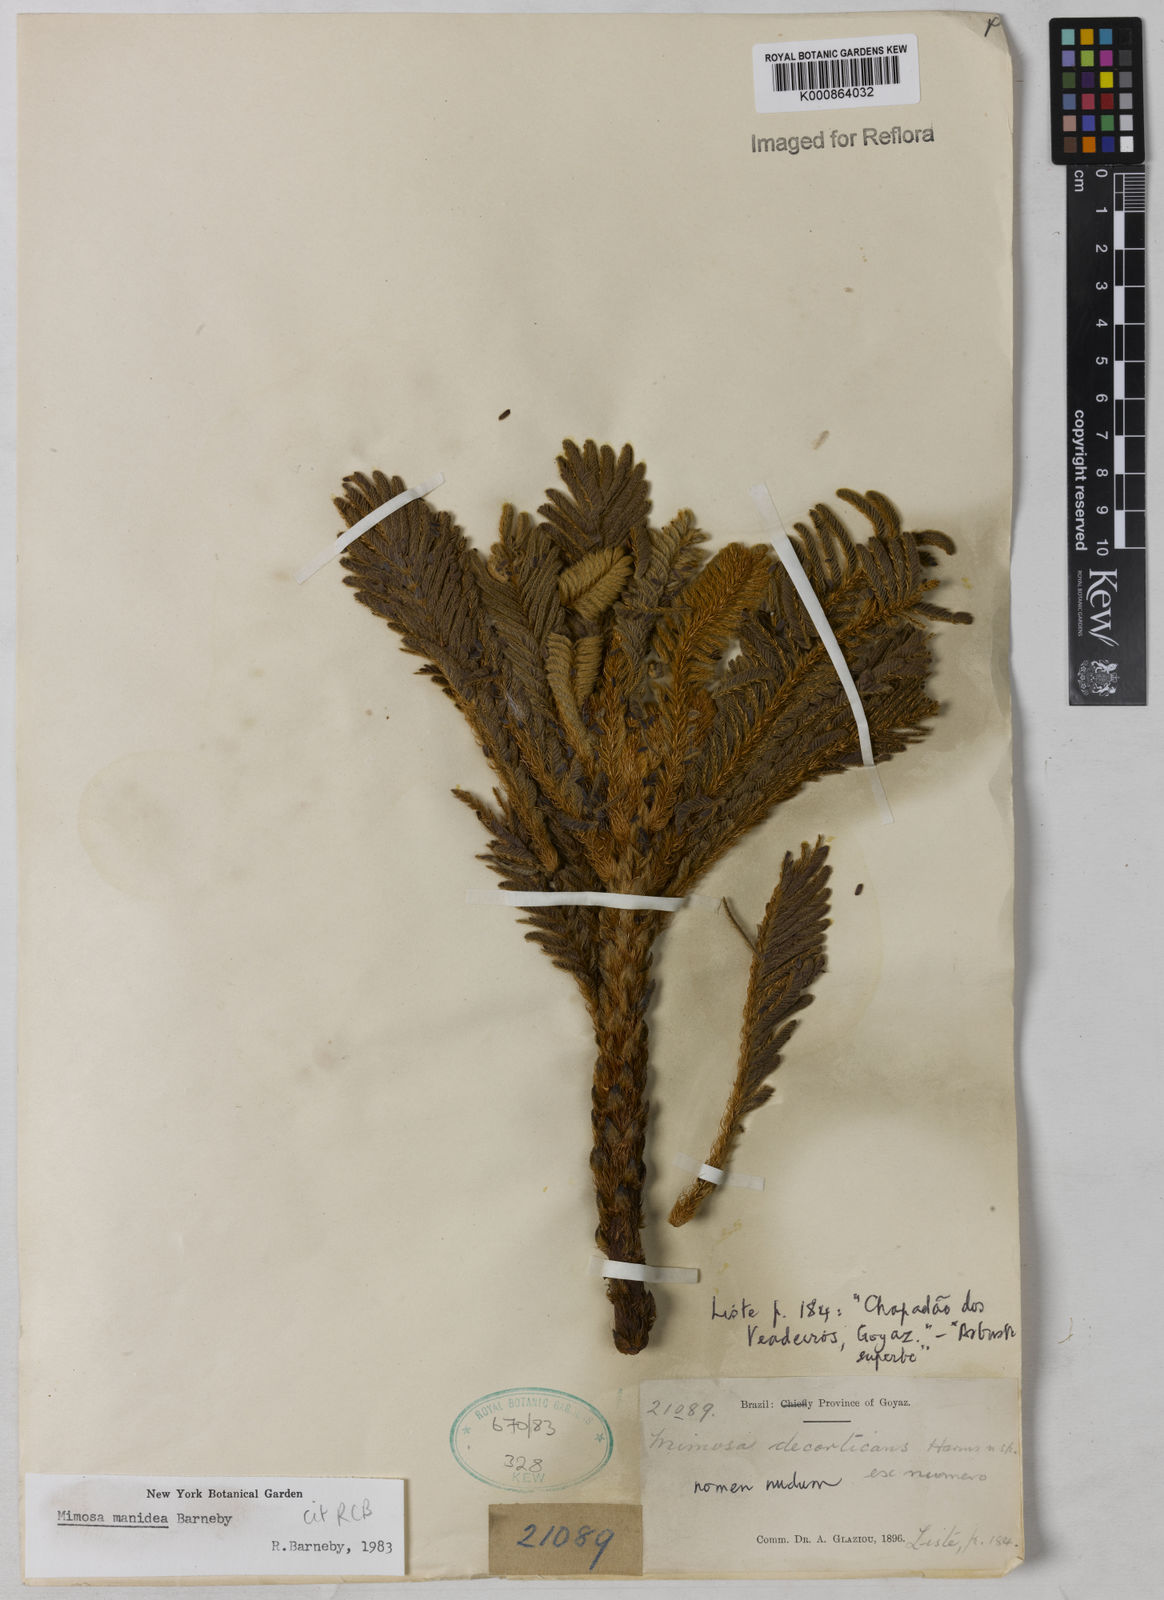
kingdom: Plantae
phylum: Tracheophyta
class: Magnoliopsida
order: Fabales
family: Fabaceae
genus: Mimosa
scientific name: Mimosa manidea
